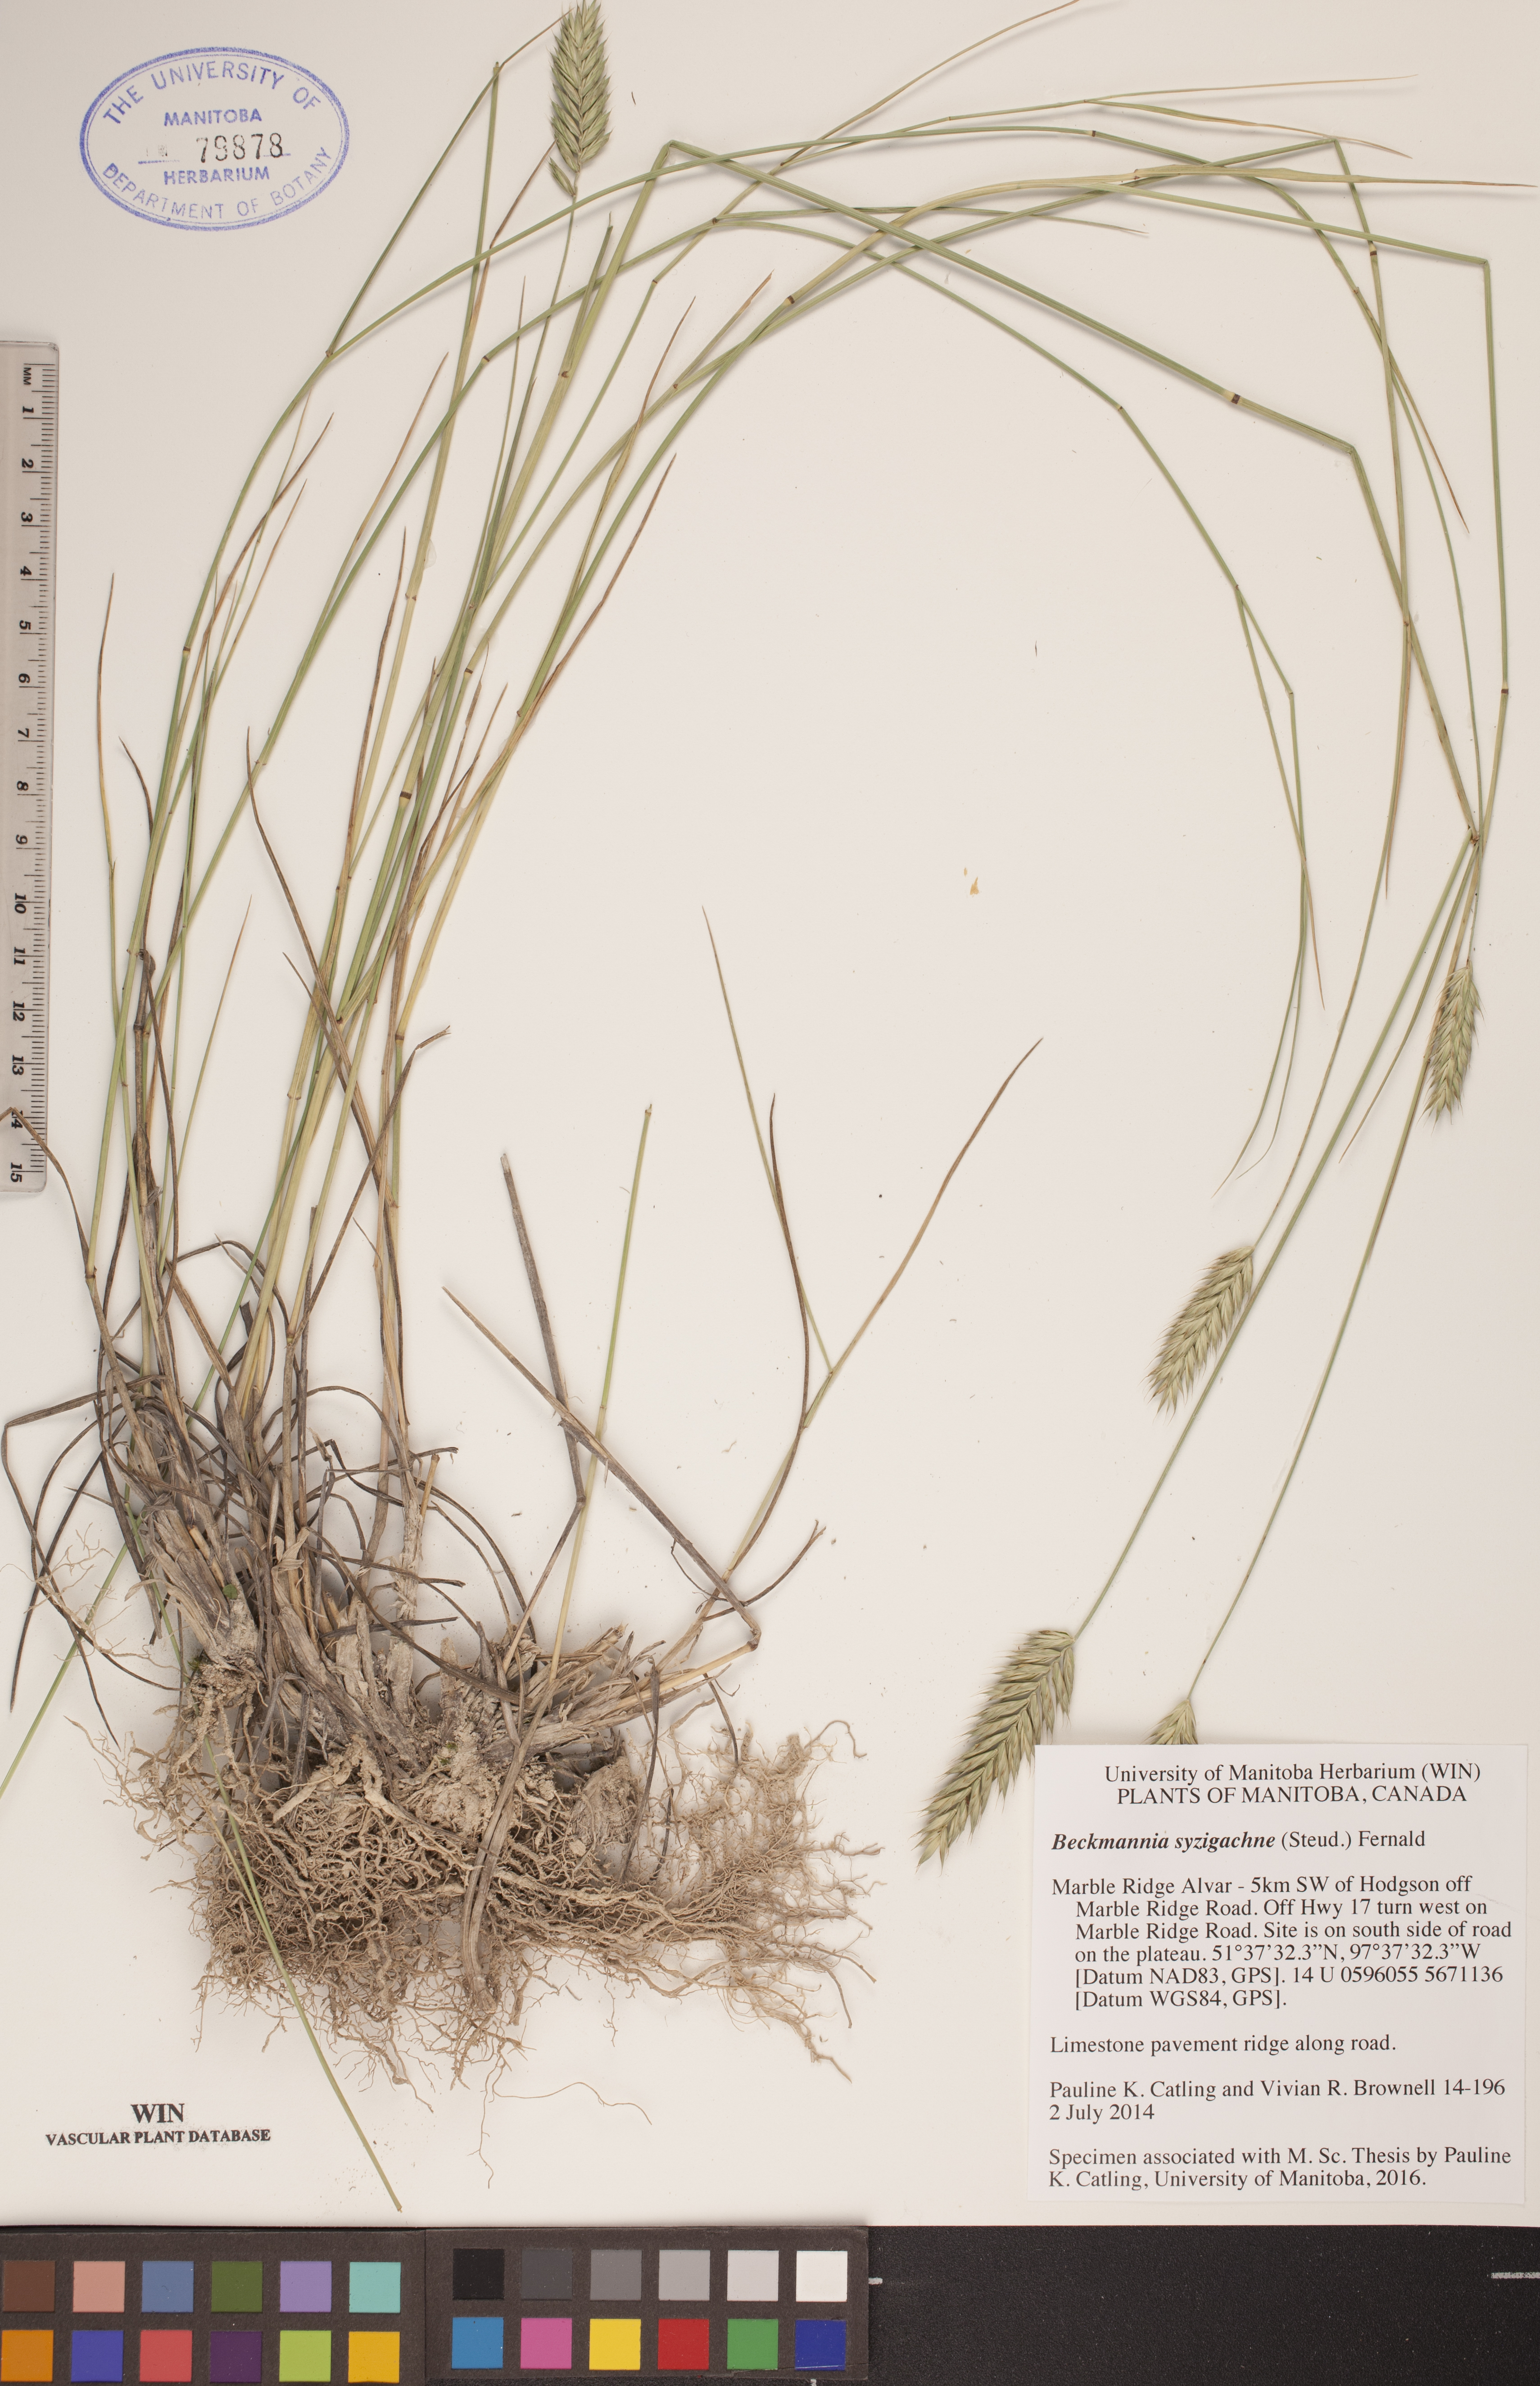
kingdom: Plantae
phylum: Tracheophyta
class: Liliopsida
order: Poales
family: Poaceae
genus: Beckmannia
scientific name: Beckmannia syzigachne
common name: American slough-grass
